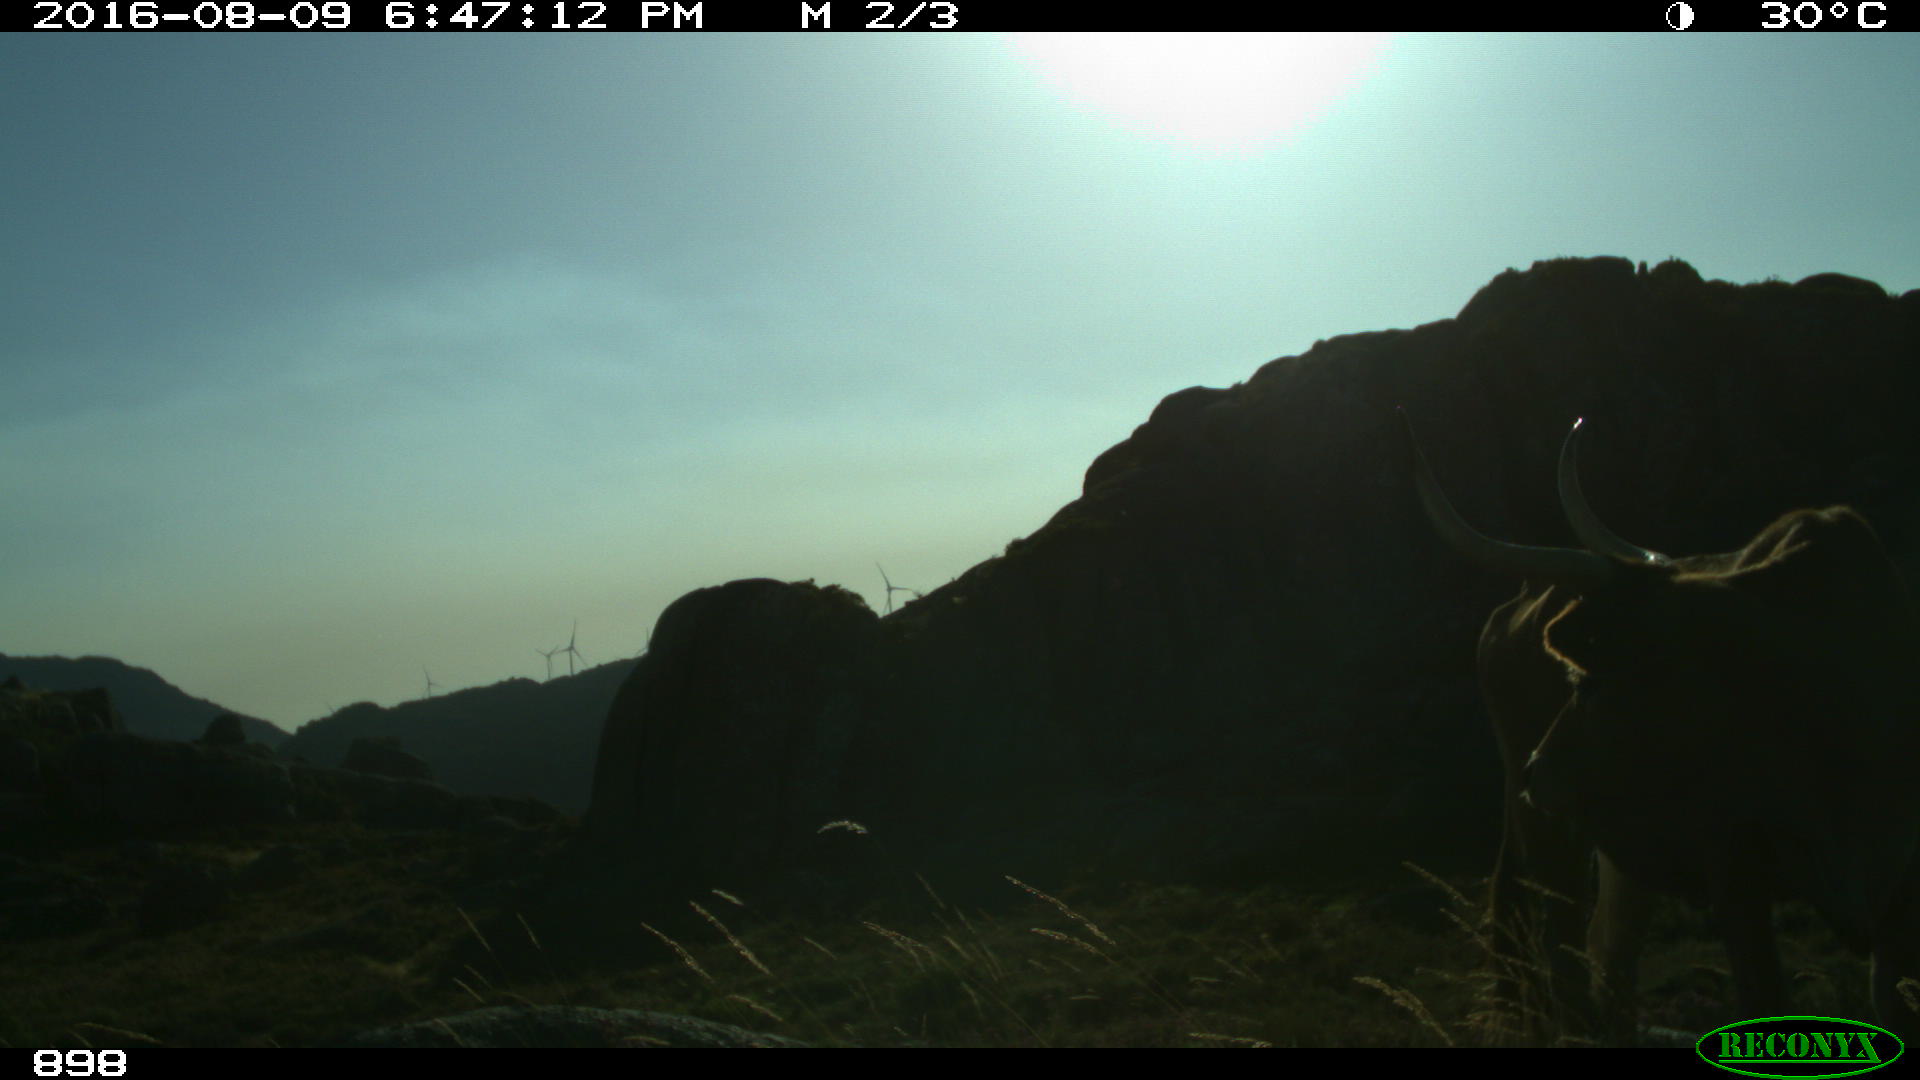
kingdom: Animalia
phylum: Chordata
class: Mammalia
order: Artiodactyla
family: Bovidae
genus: Bos
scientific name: Bos taurus
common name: Domesticated cattle
